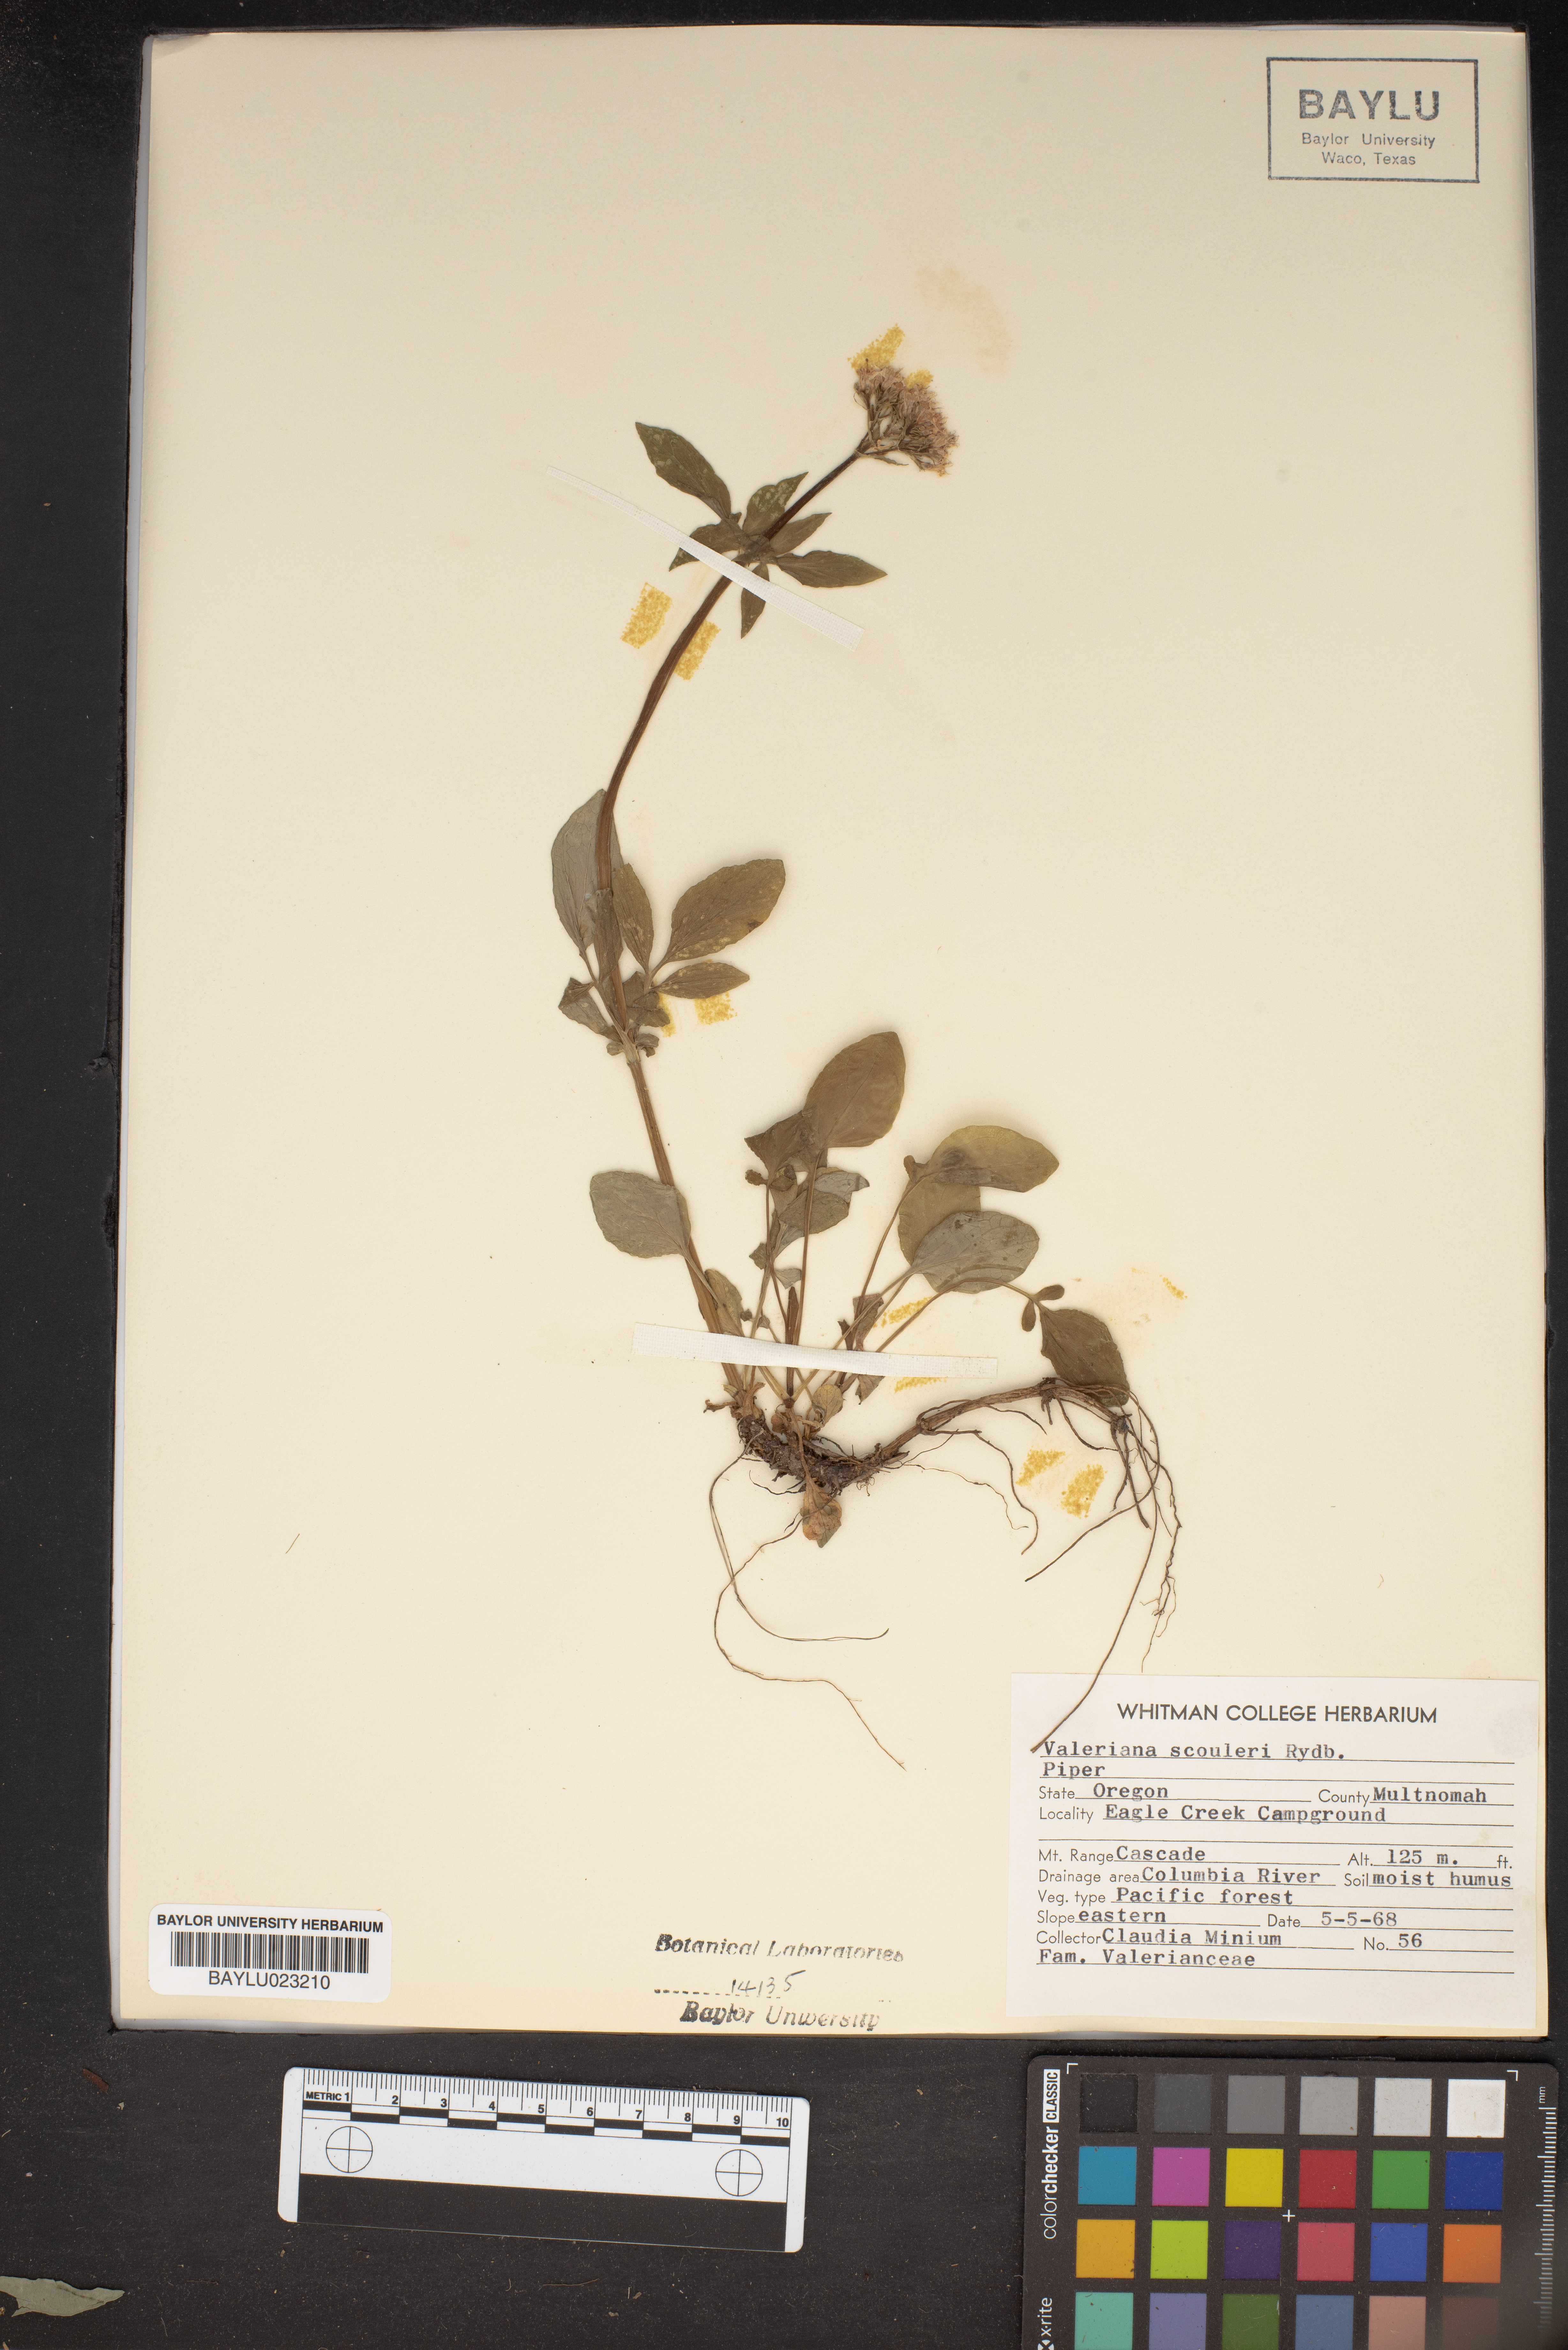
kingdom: Plantae
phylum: Tracheophyta
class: Magnoliopsida
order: Dipsacales
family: Caprifoliaceae
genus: Valeriana
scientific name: Valeriana scouleri
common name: Scouler's valerian
